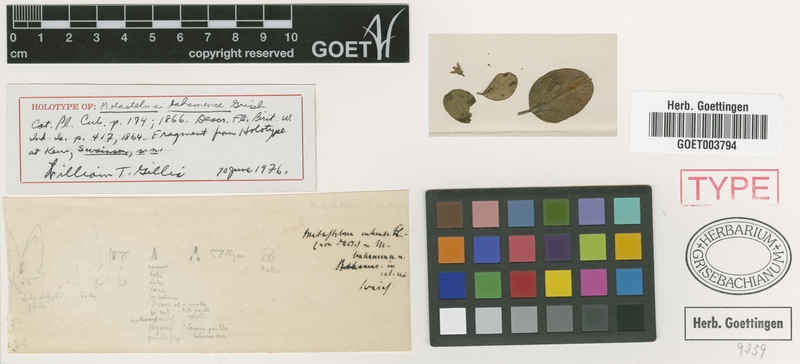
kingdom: Plantae
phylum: Tracheophyta
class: Magnoliopsida
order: Gentianales
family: Apocynaceae
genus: Metastelma
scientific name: Metastelma bahamense
